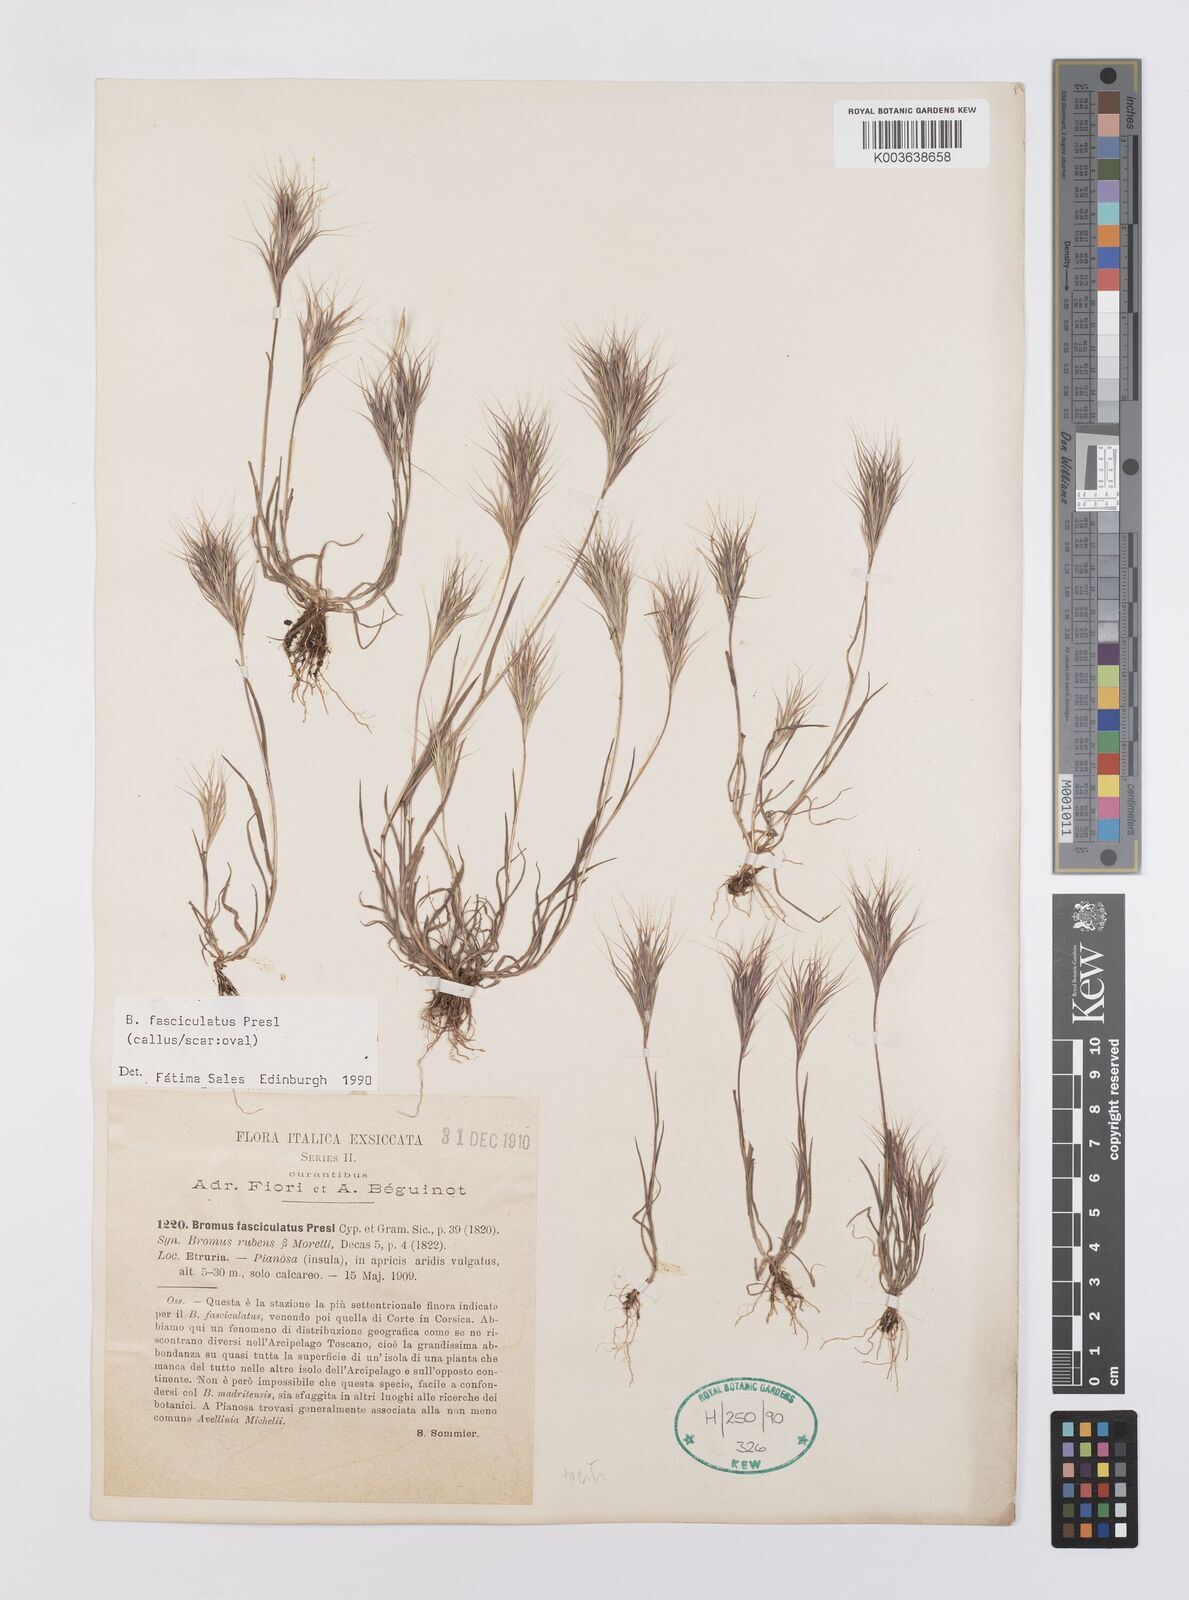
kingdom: Plantae
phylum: Tracheophyta
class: Liliopsida
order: Poales
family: Poaceae
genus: Bromus
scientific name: Bromus fasciculatus
